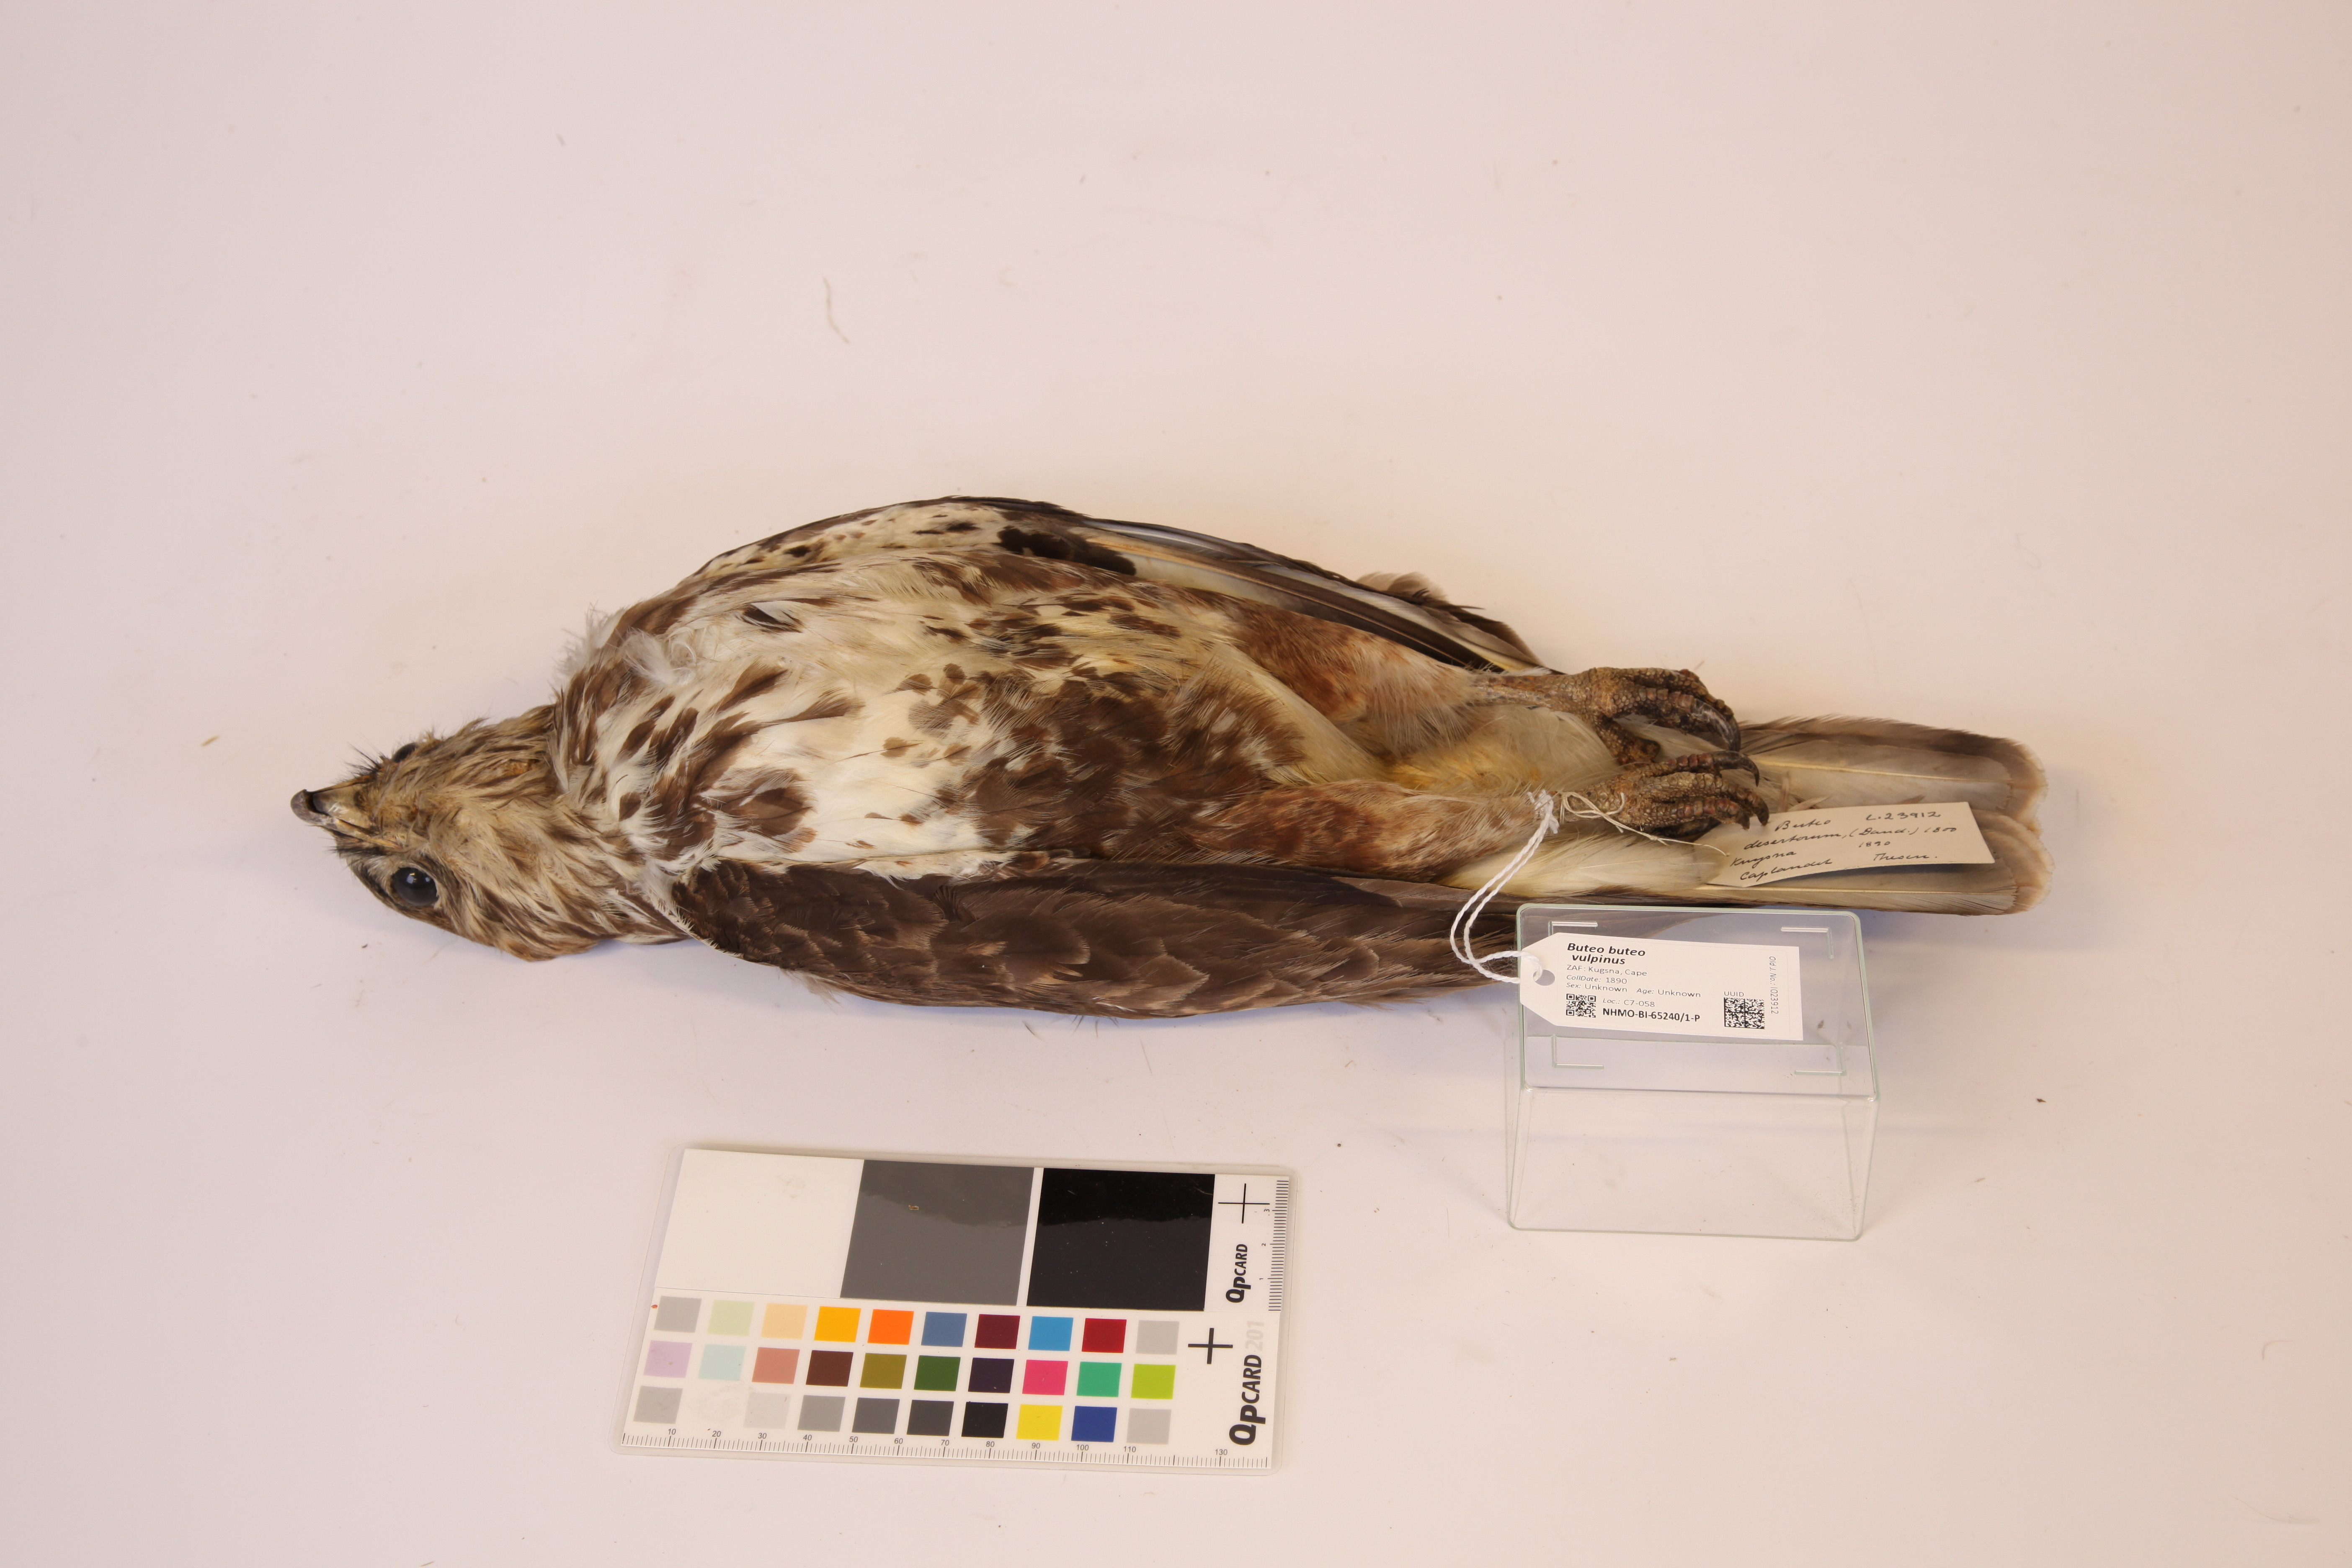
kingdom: Animalia
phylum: Chordata
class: Aves
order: Accipitriformes
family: Accipitridae
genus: Buteo
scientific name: Buteo buteo
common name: Common buzzard
